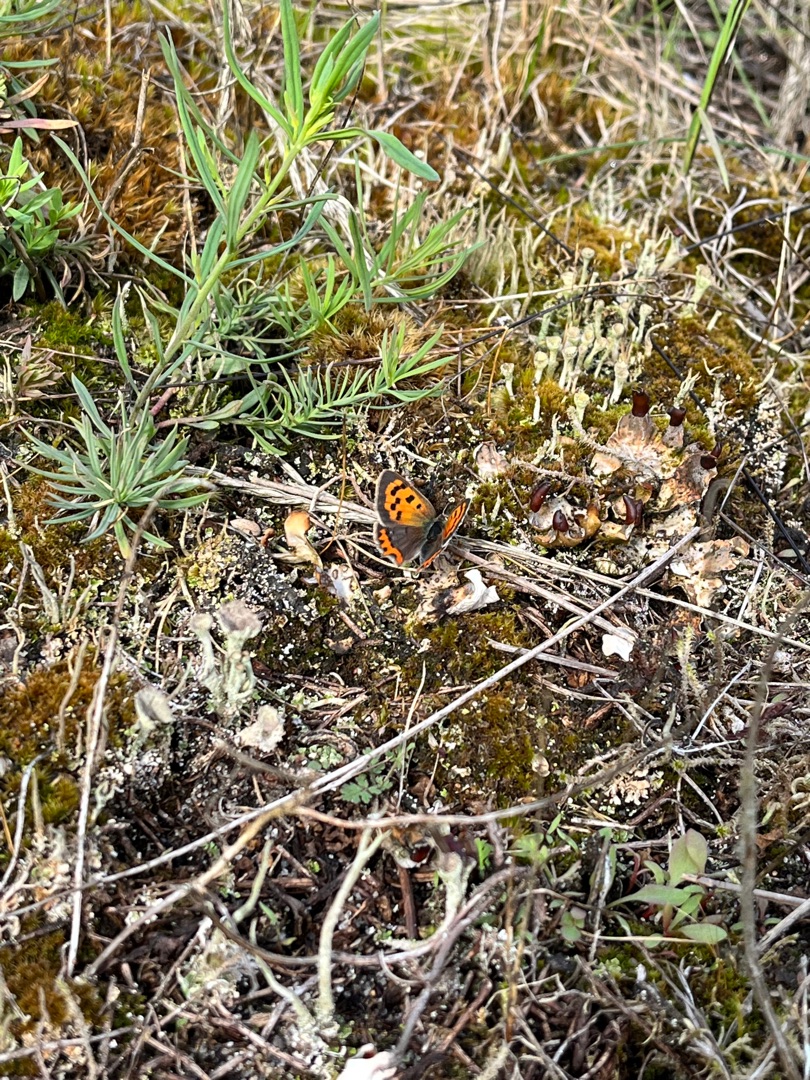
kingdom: Animalia
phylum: Arthropoda
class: Insecta
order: Lepidoptera
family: Lycaenidae
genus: Lycaena
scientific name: Lycaena phlaeas
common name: Lille ildfugl
